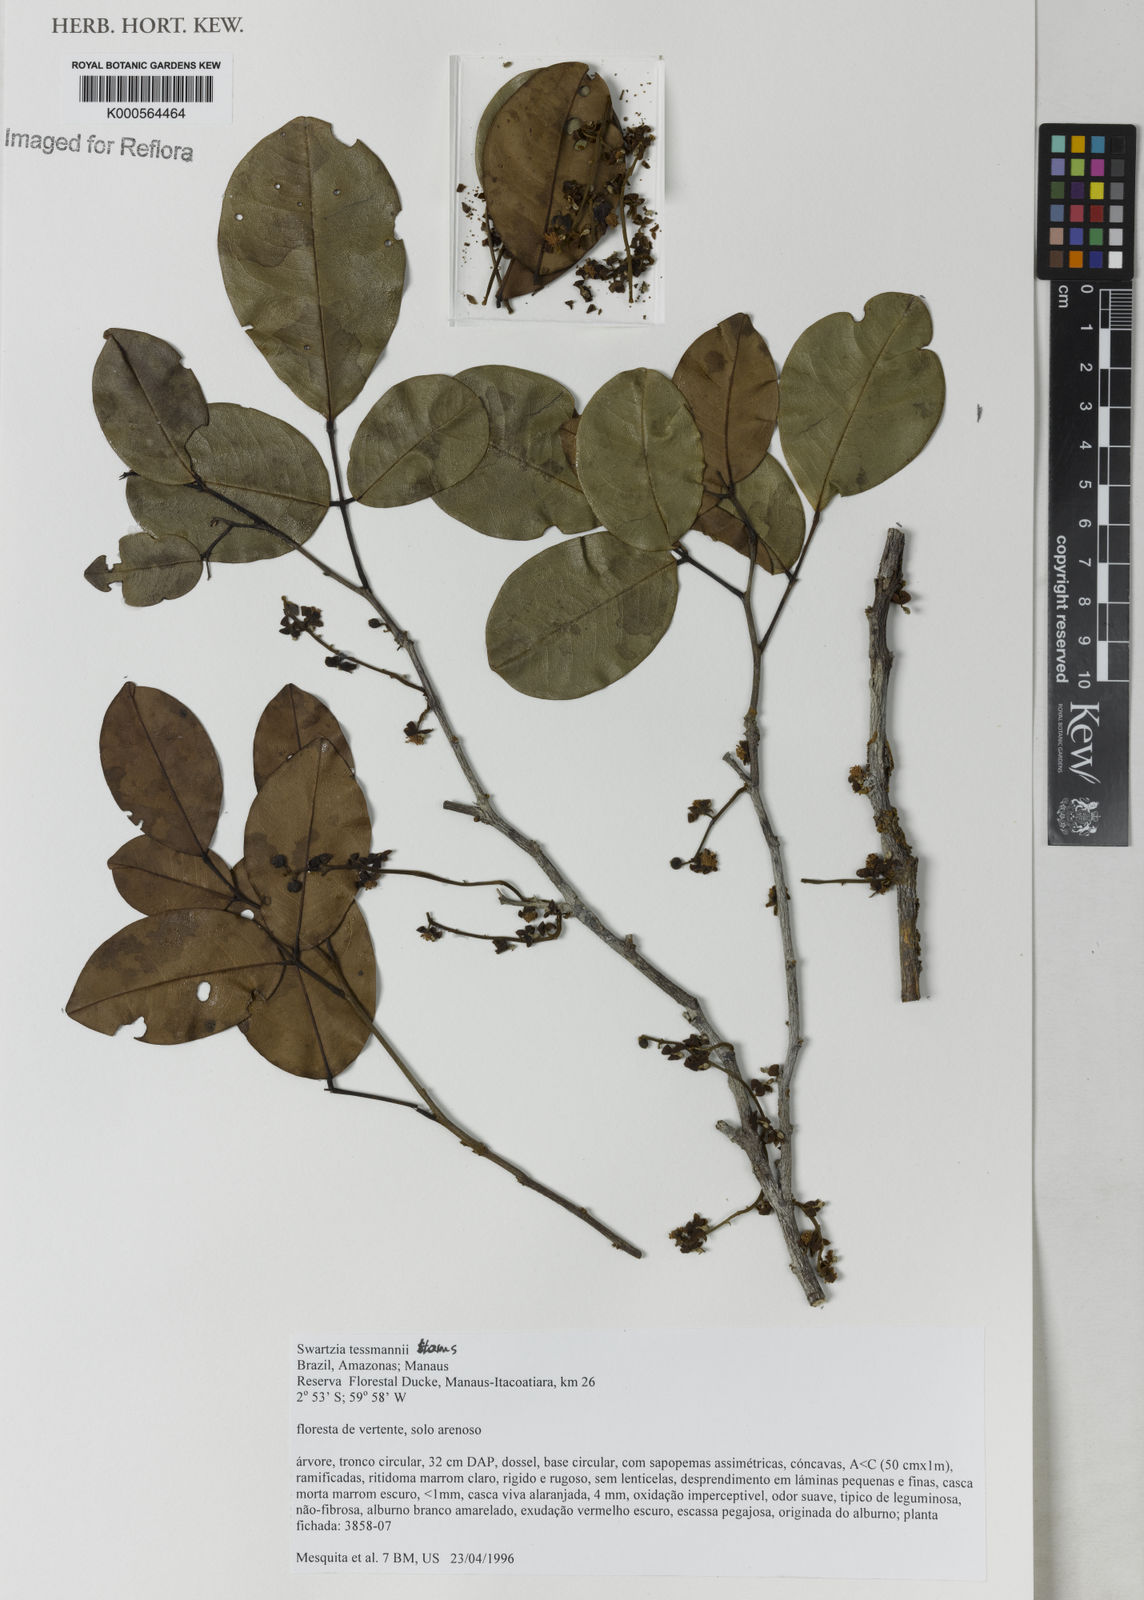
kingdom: Plantae
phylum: Tracheophyta
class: Magnoliopsida
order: Fabales
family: Fabaceae
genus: Swartzia
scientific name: Swartzia tessmannii
